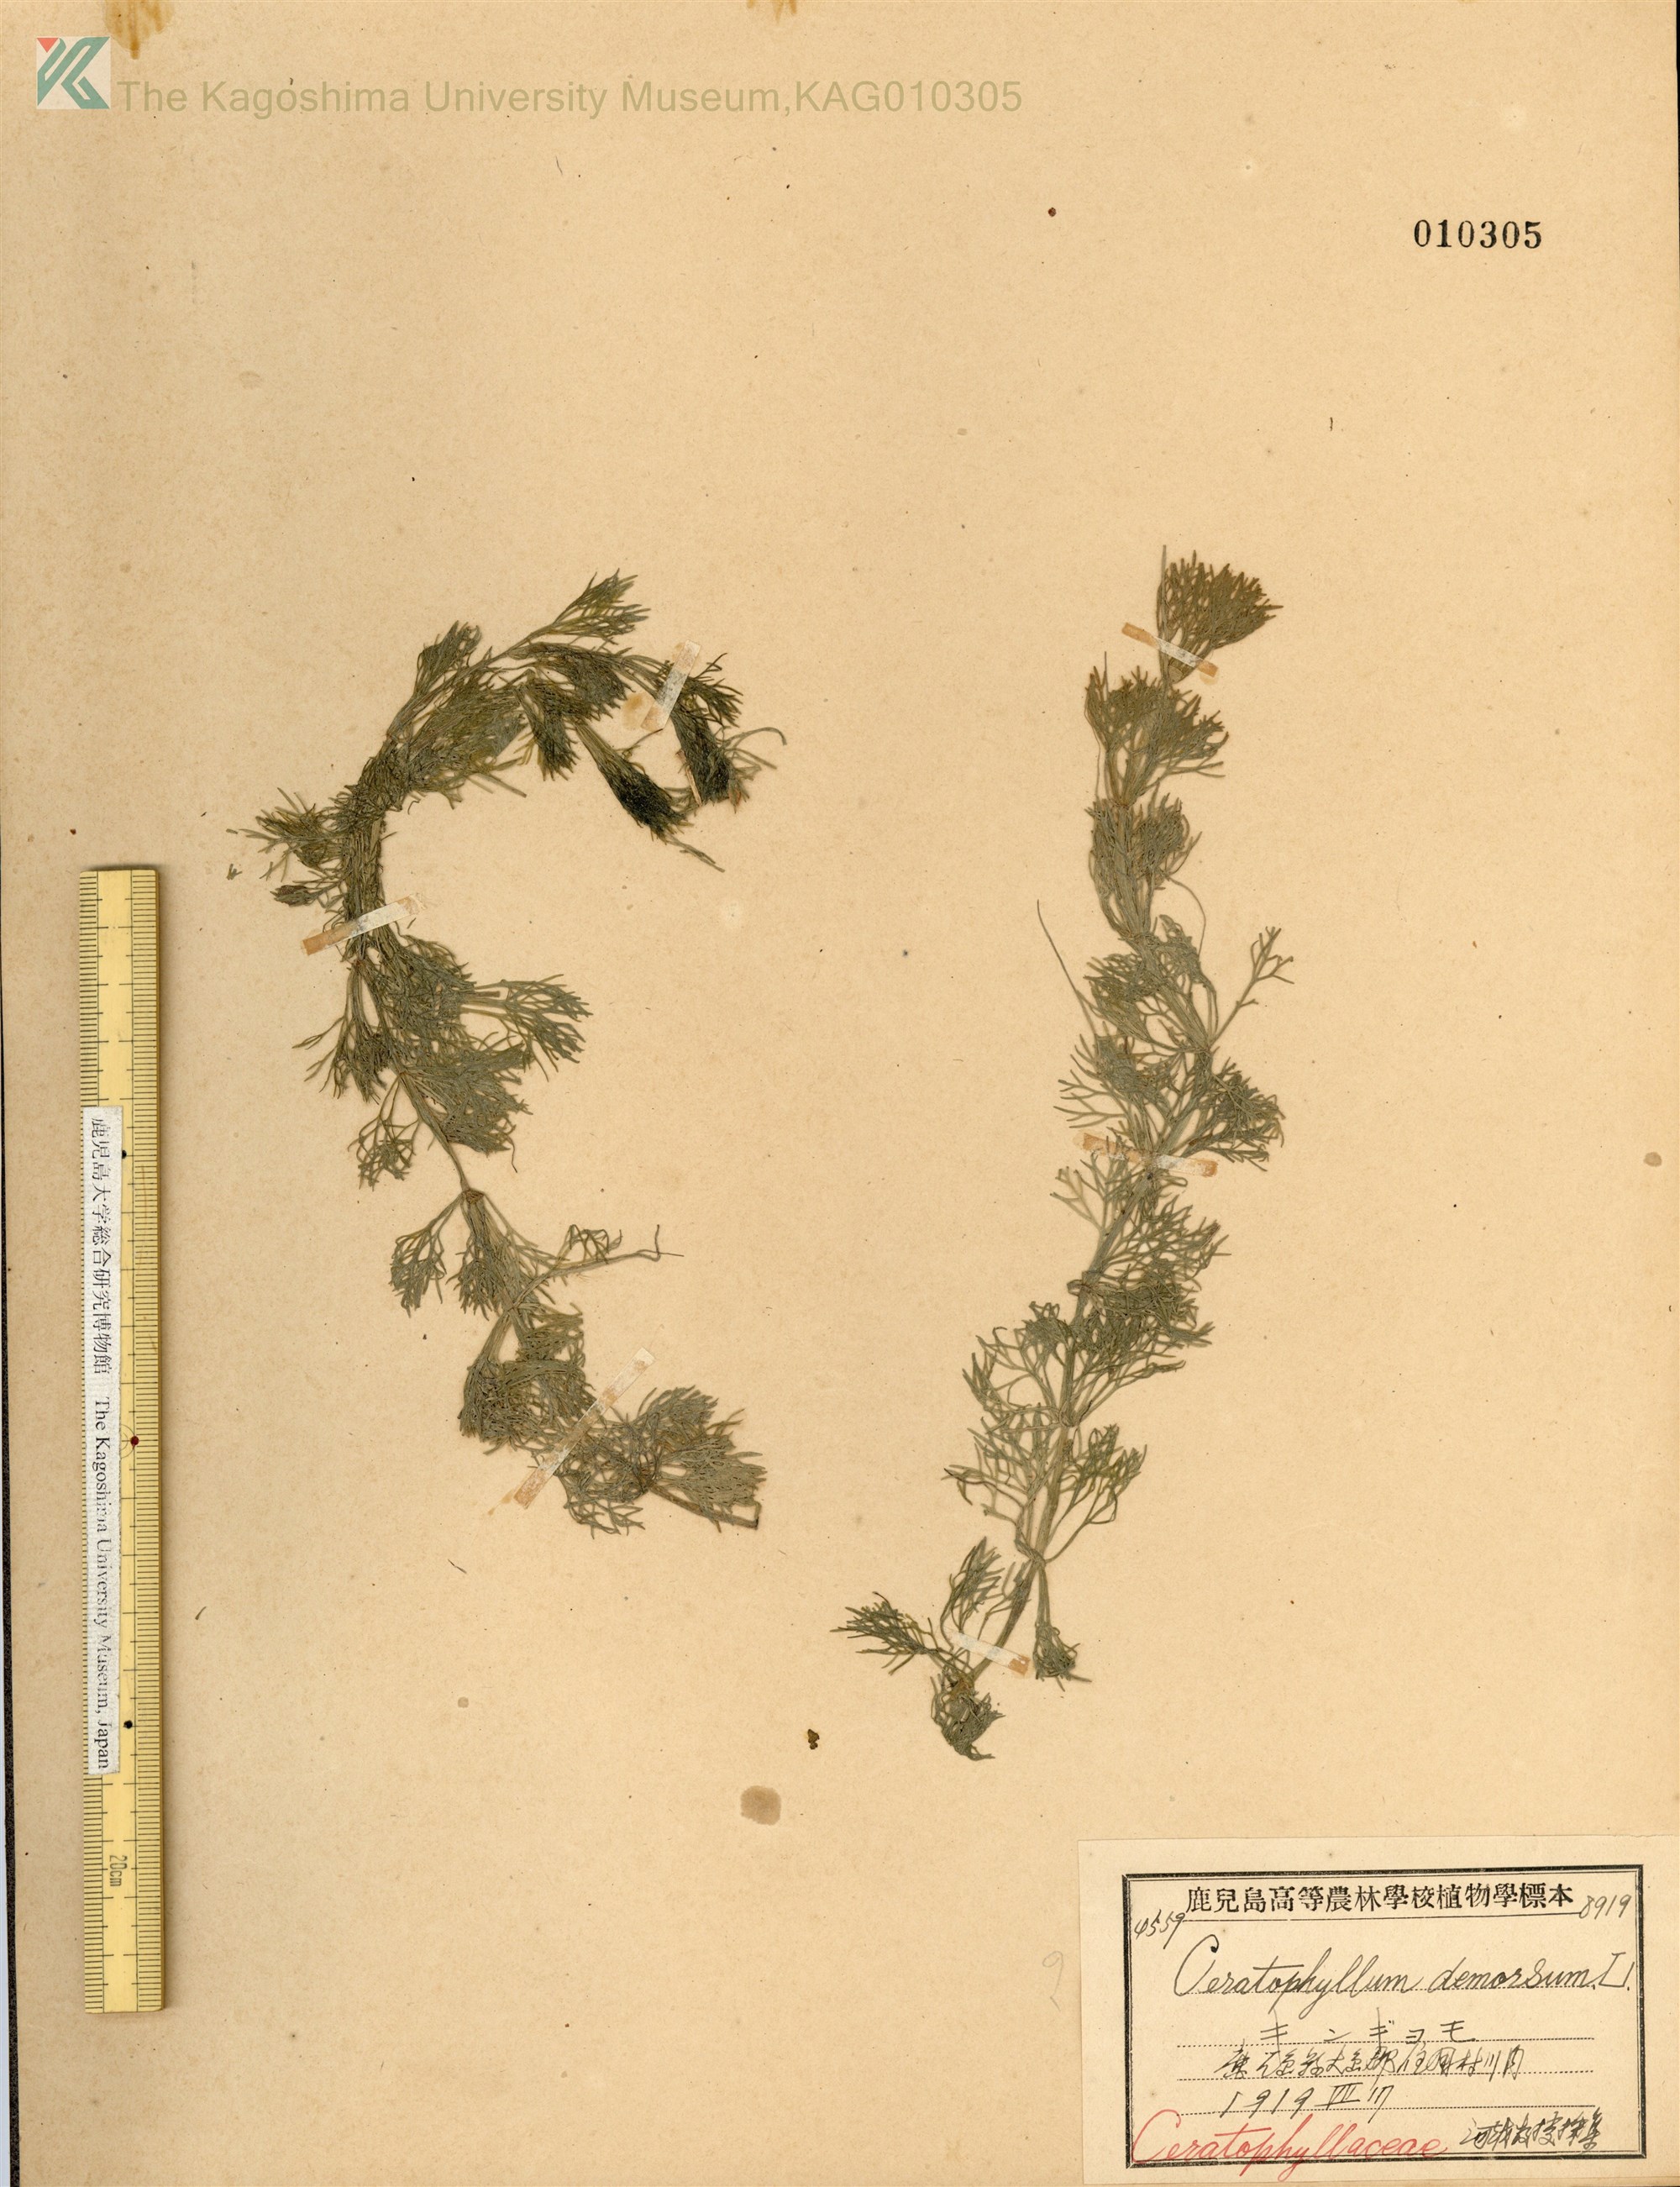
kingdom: Plantae
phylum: Tracheophyta
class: Magnoliopsida
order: Ceratophyllales
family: Ceratophyllaceae
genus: Ceratophyllum
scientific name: Ceratophyllum demersum
